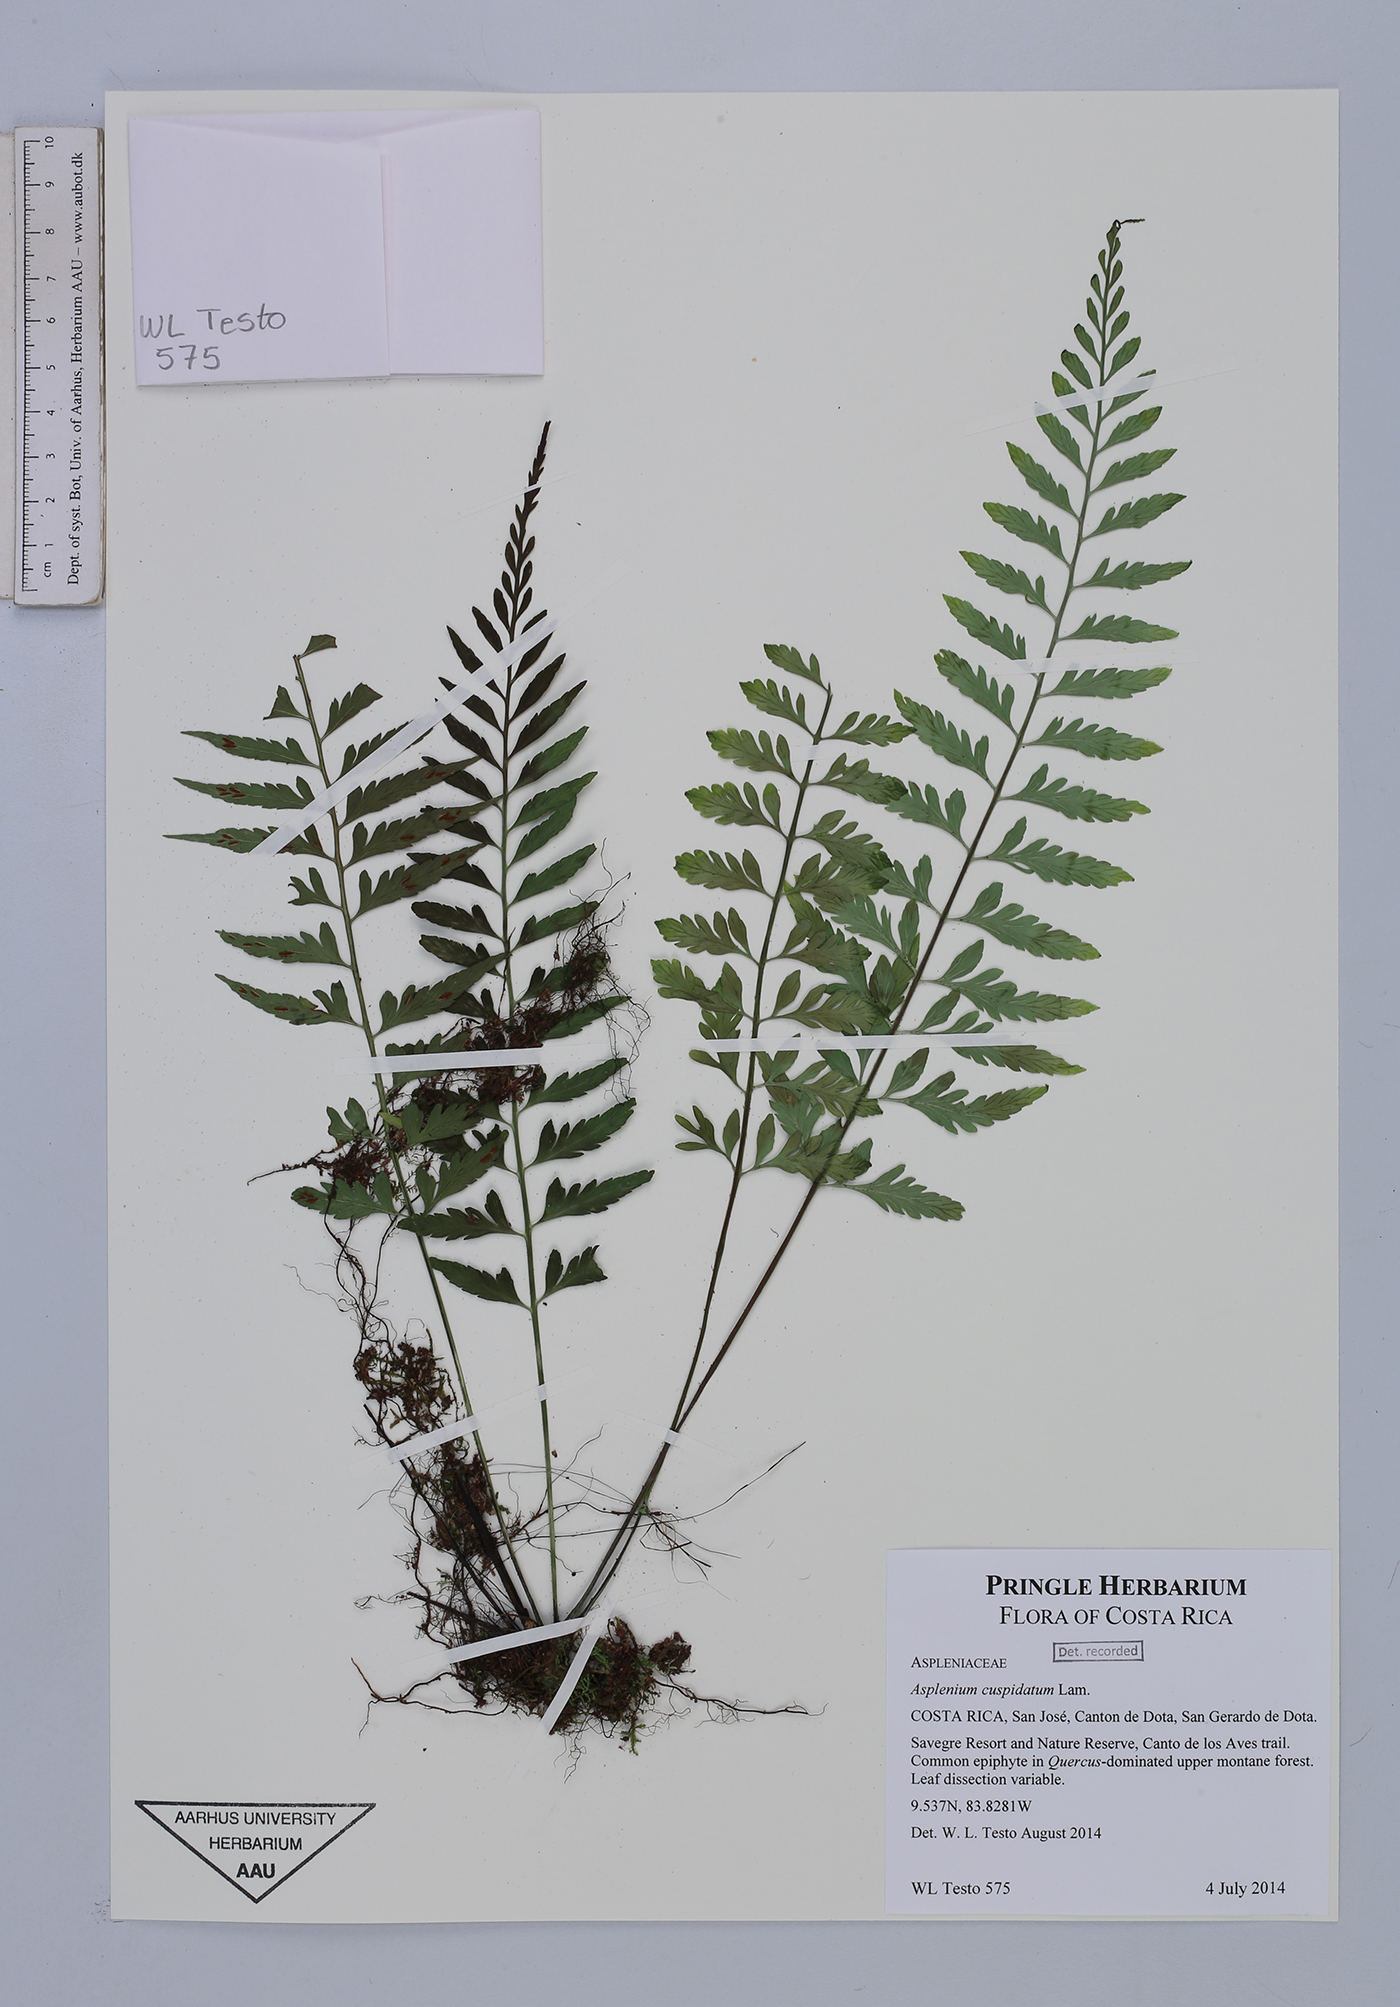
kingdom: Plantae
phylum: Tracheophyta
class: Polypodiopsida
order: Polypodiales
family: Aspleniaceae
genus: Asplenium
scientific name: Asplenium cuspidatum
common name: Eared spleenwort
